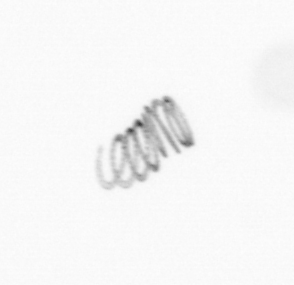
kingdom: Chromista
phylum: Ochrophyta
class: Bacillariophyceae
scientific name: Bacillariophyceae
